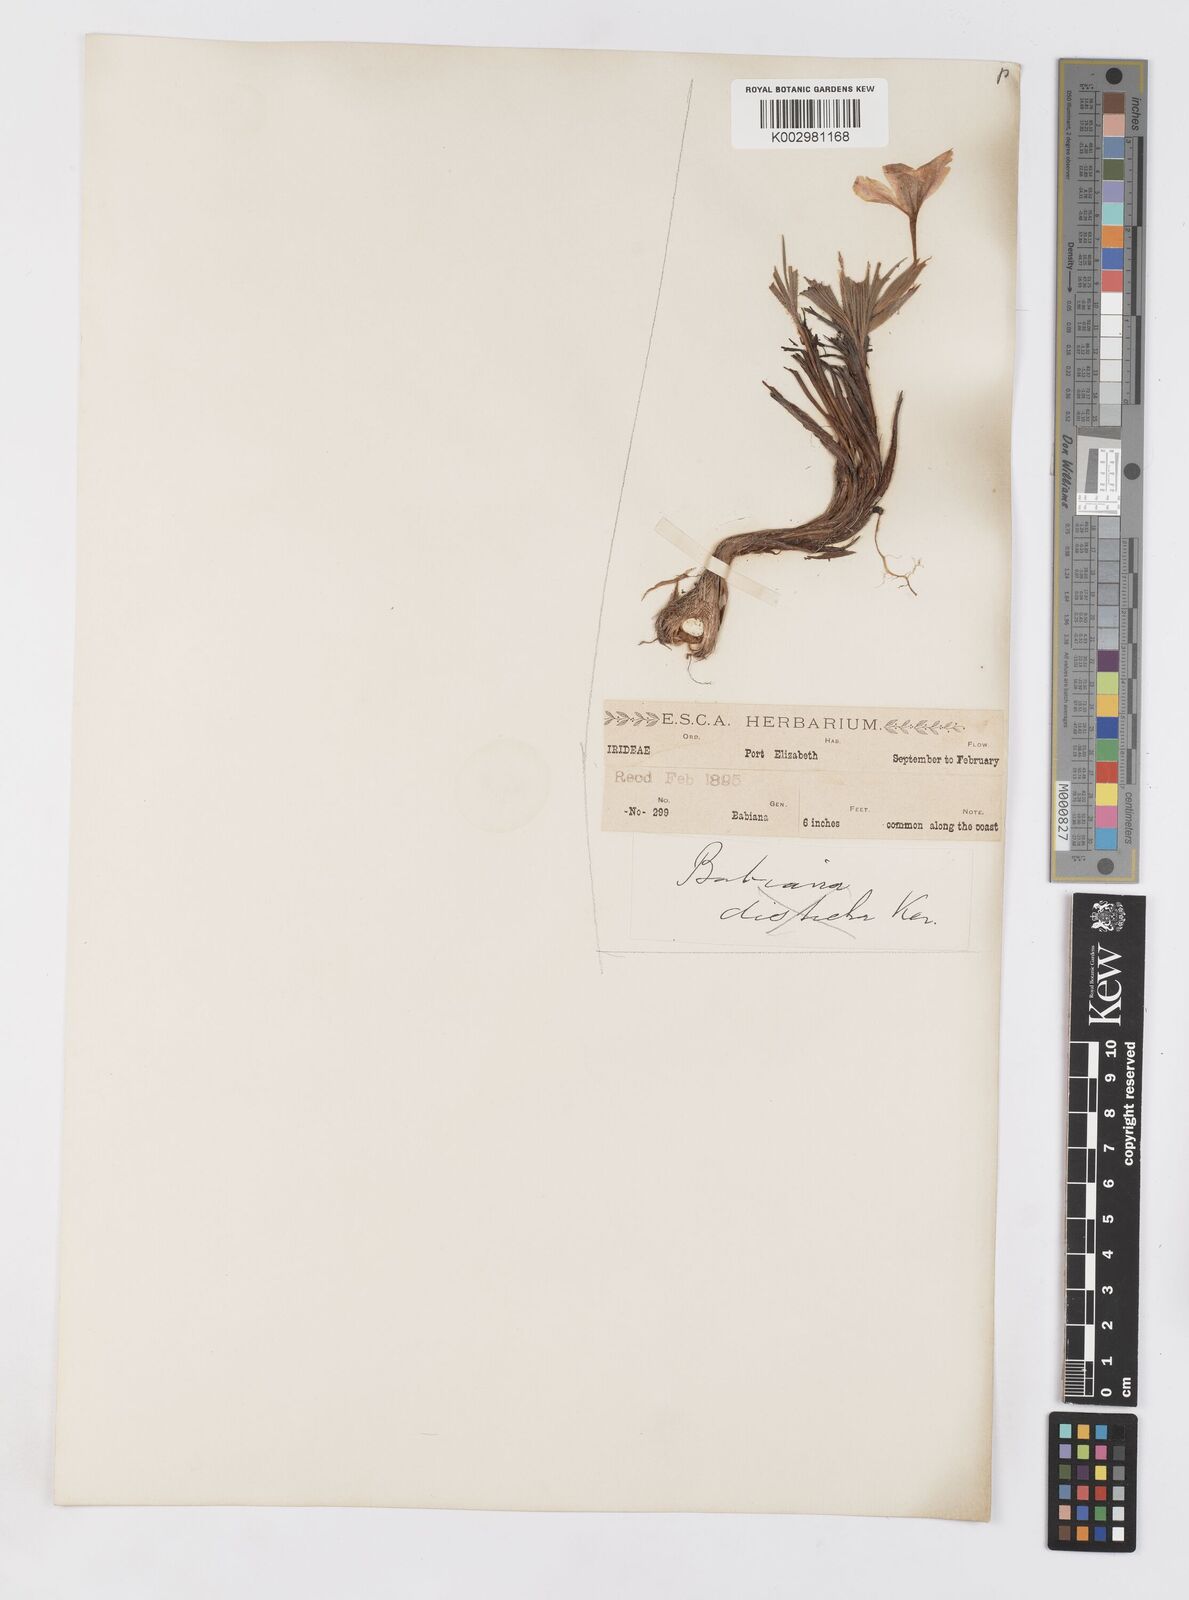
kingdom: Plantae
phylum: Tracheophyta
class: Liliopsida
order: Asparagales
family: Iridaceae
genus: Babiana
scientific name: Babiana
